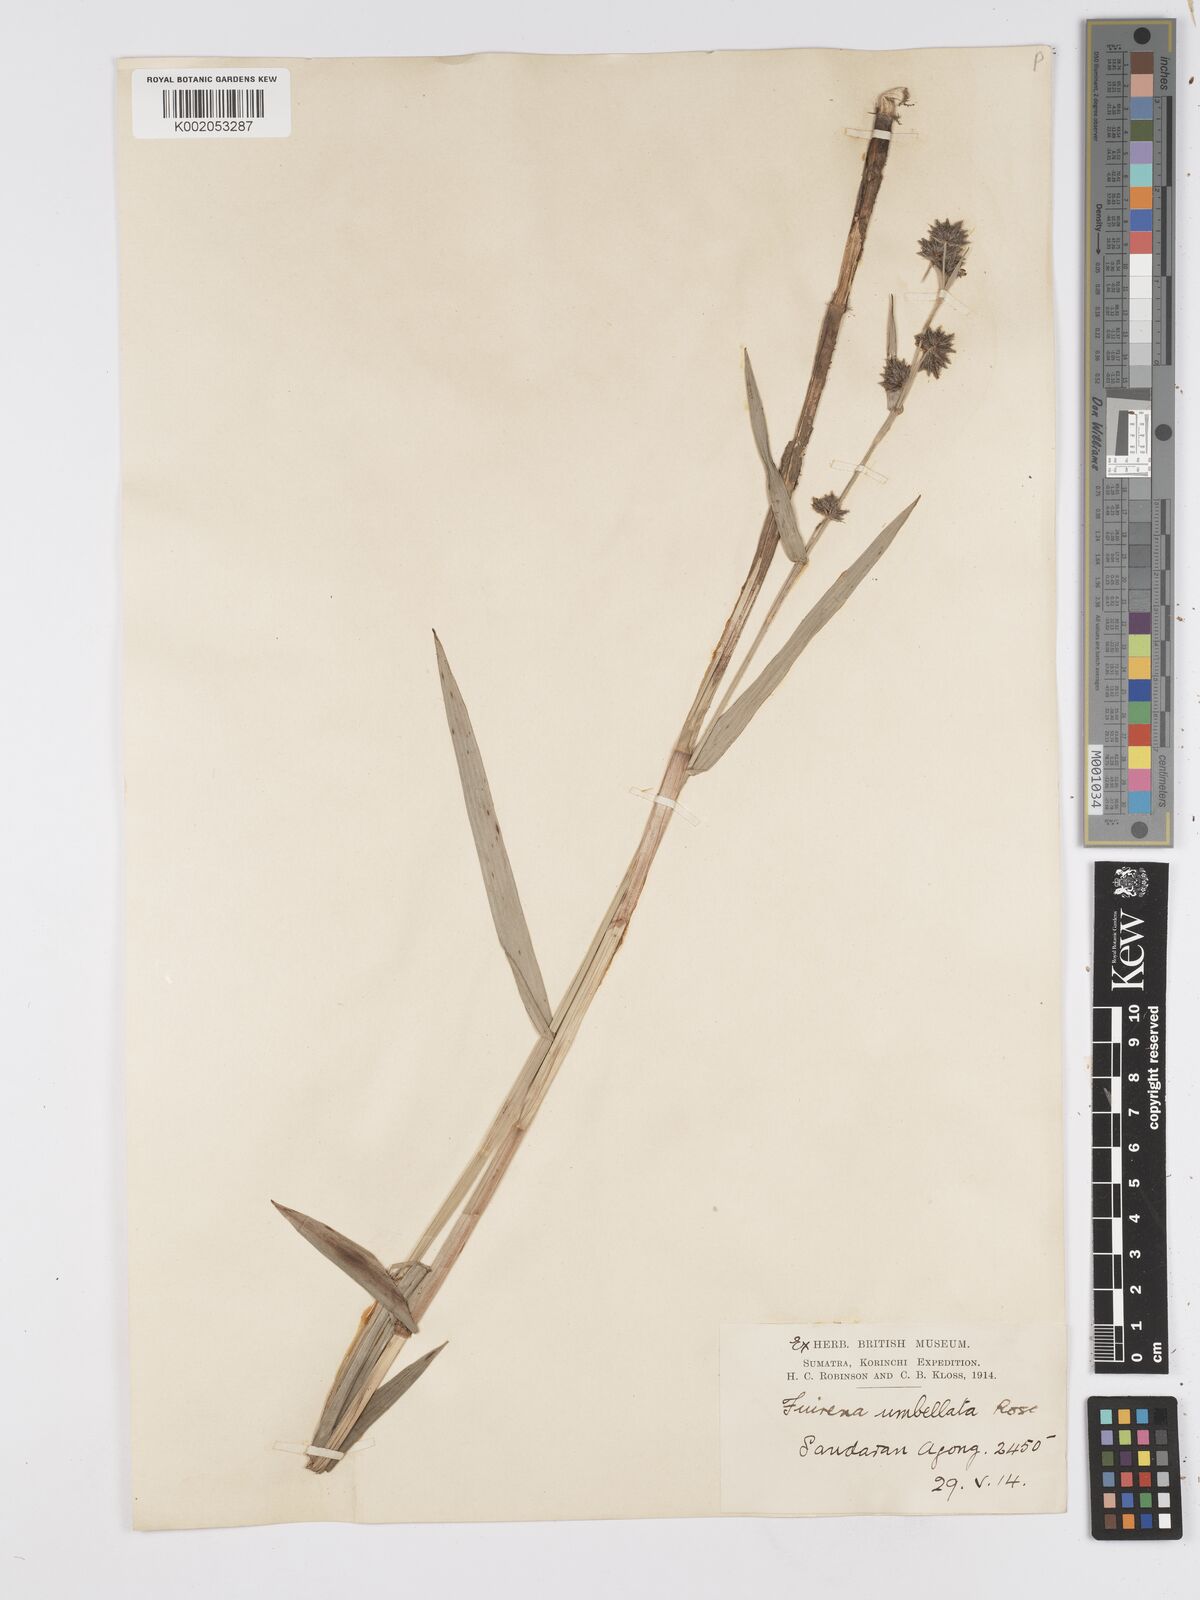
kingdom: Plantae
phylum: Tracheophyta
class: Liliopsida
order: Poales
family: Cyperaceae
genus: Fuirena
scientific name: Fuirena umbellata
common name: Yefen
